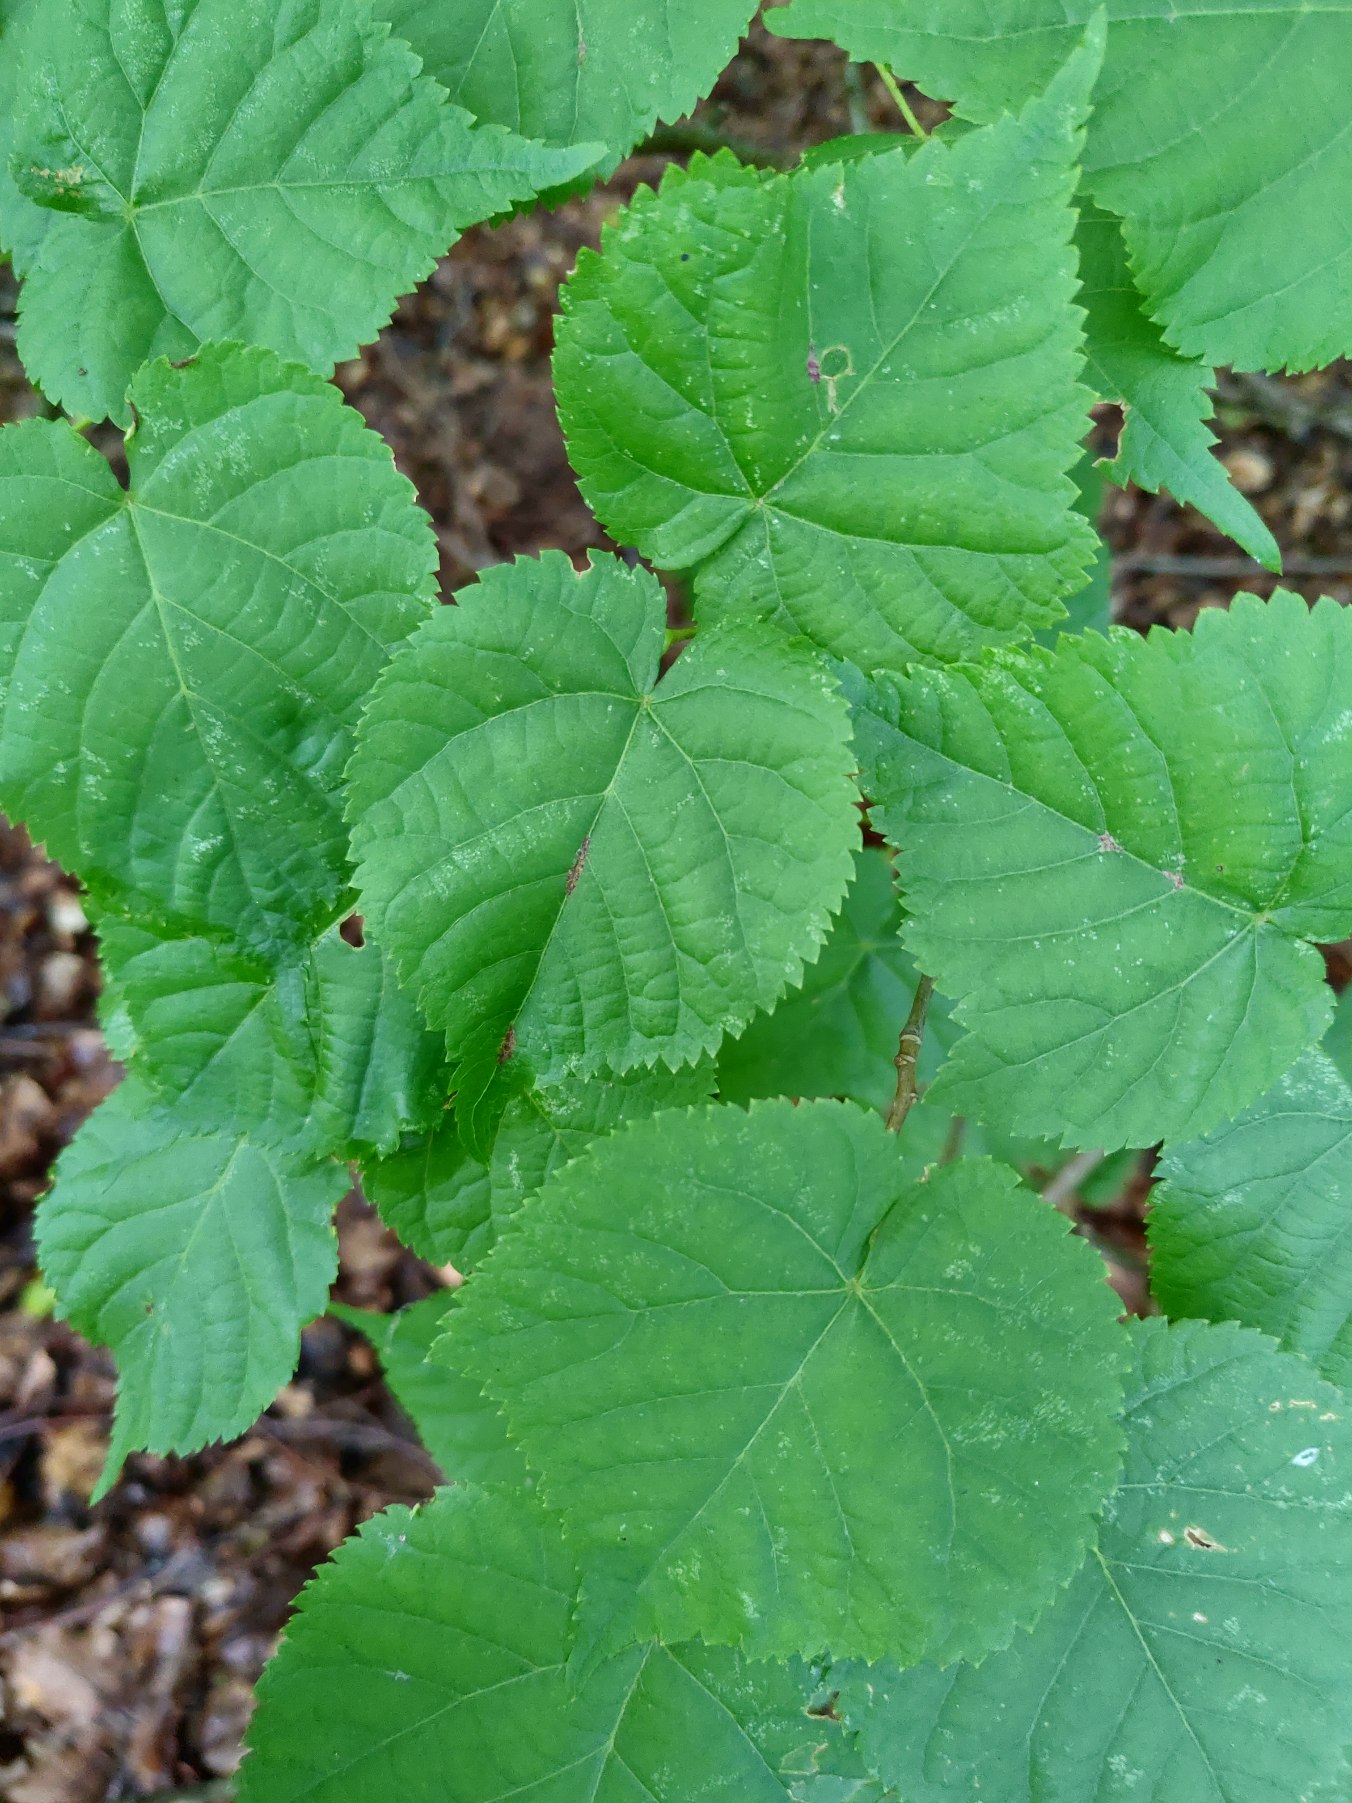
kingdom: Plantae
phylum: Tracheophyta
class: Magnoliopsida
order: Malvales
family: Malvaceae
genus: Tilia
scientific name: Tilia cordata
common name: Småbladet lind
